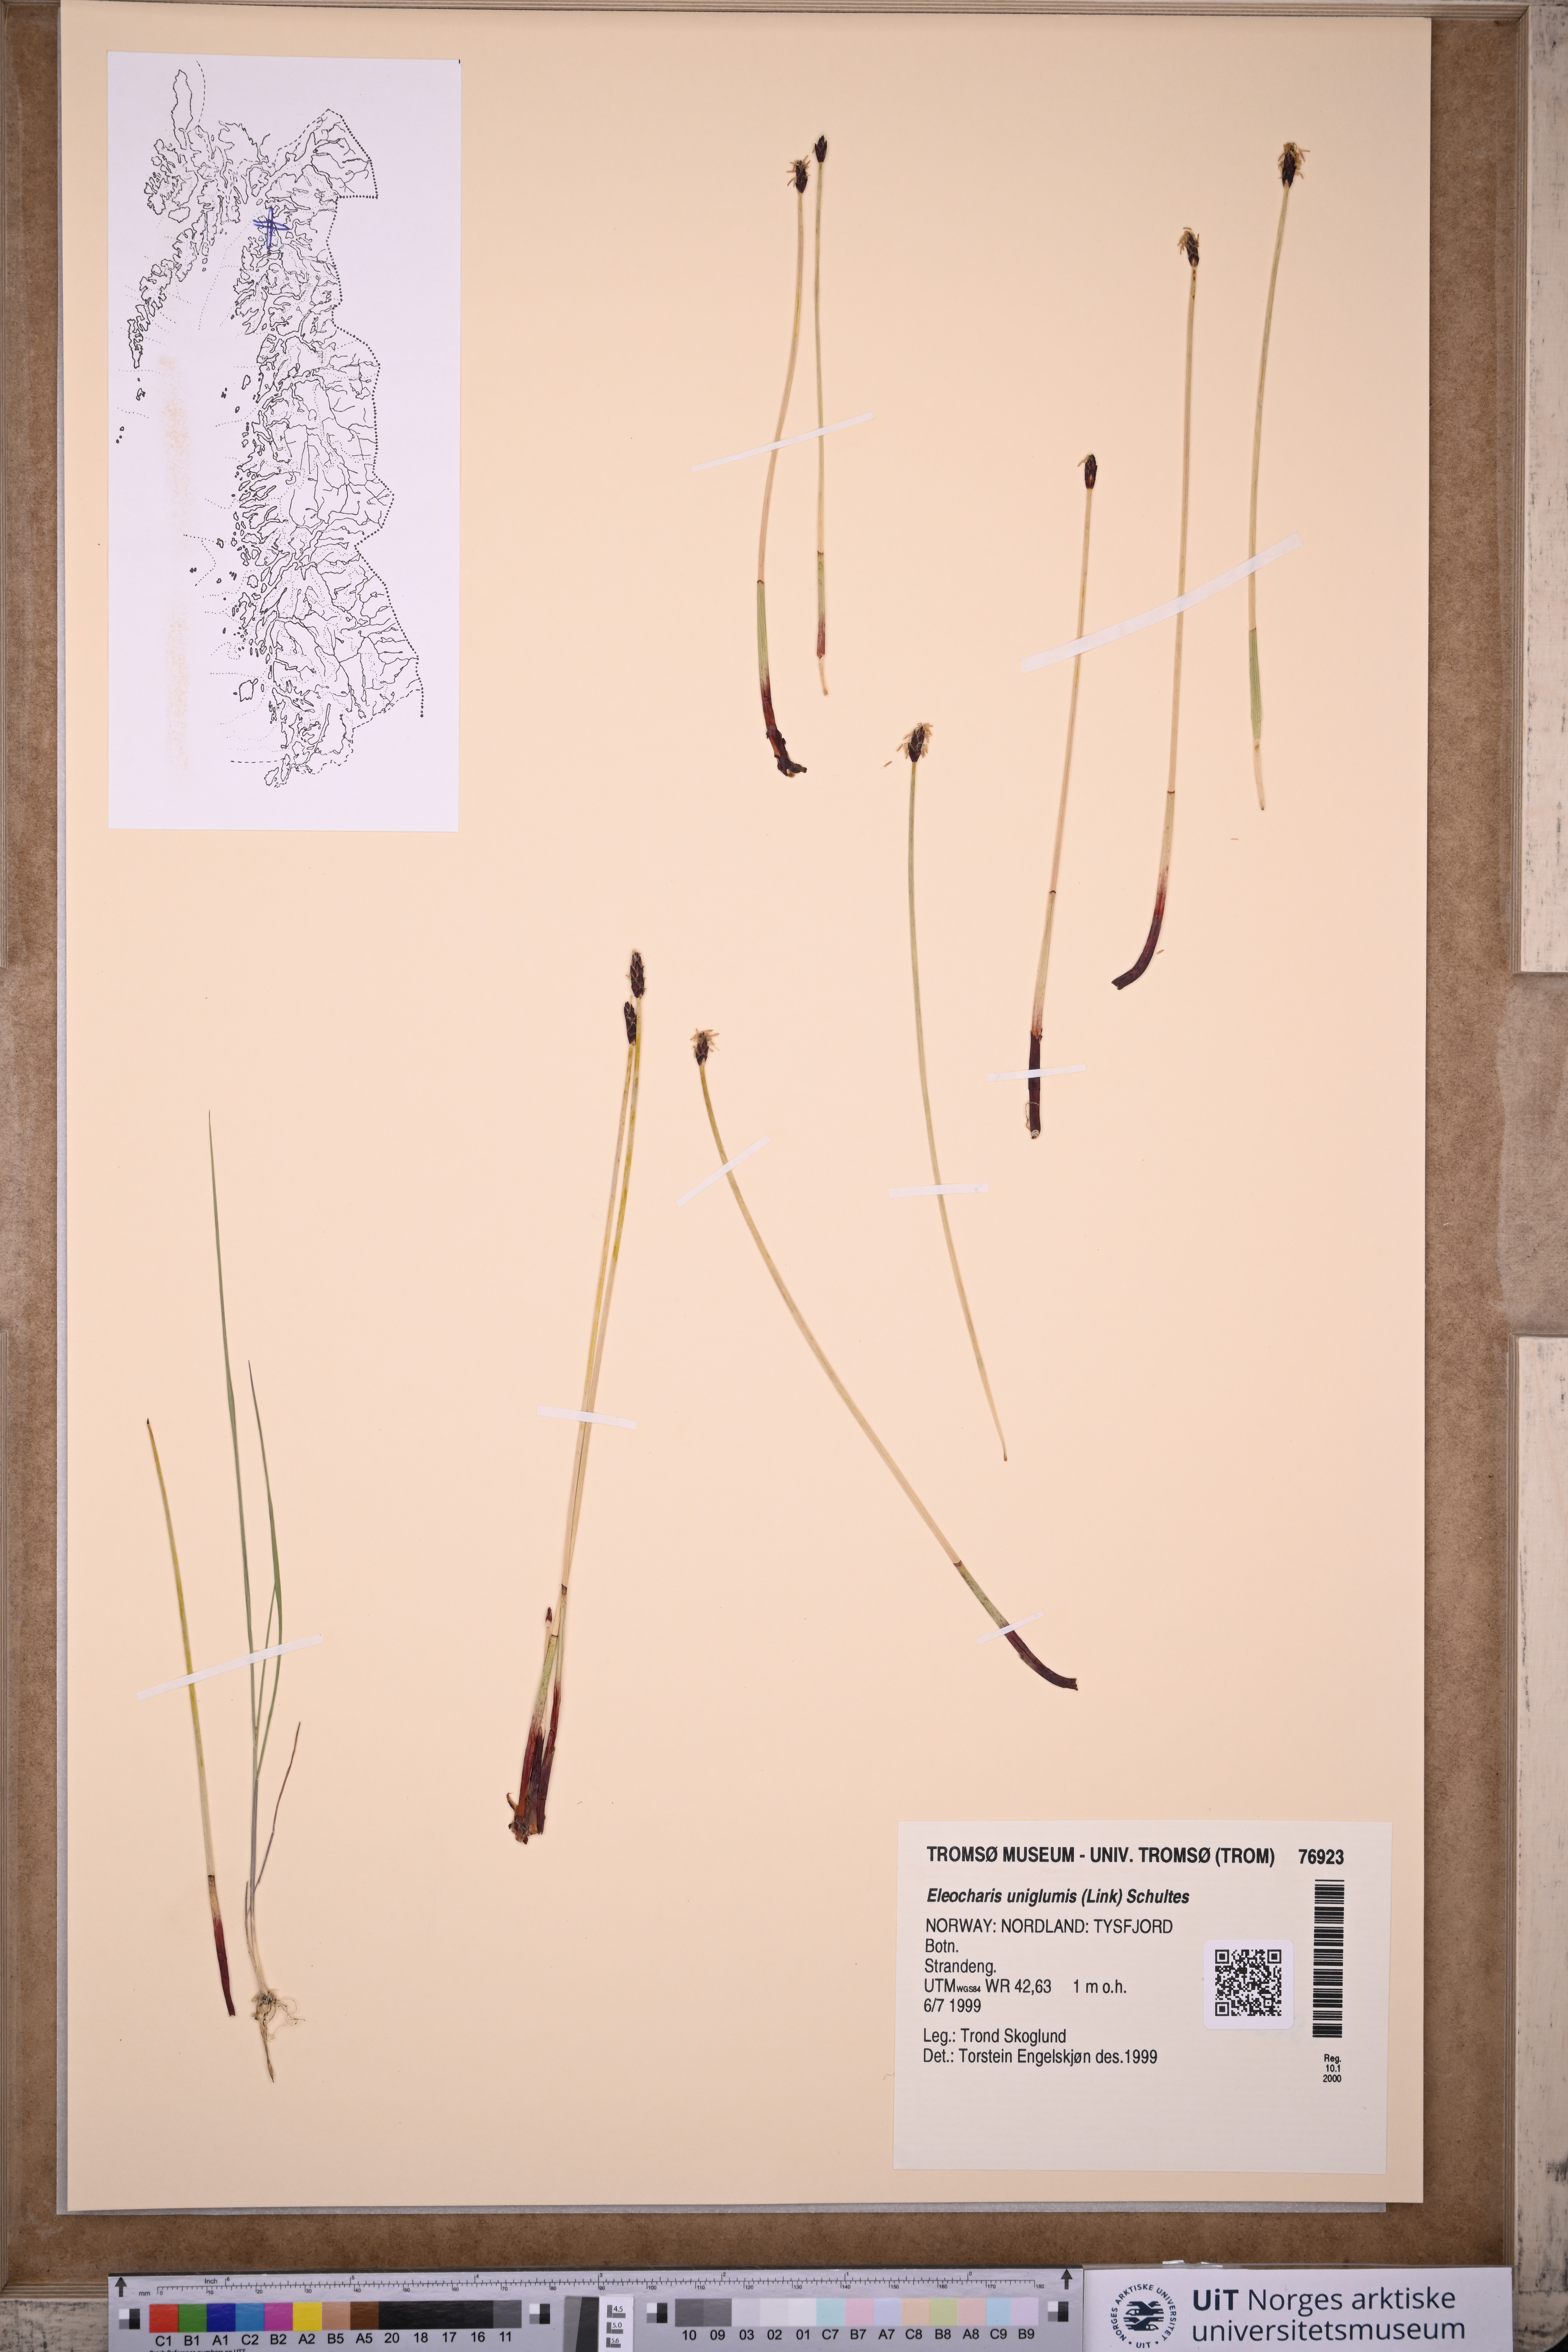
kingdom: Plantae
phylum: Tracheophyta
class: Liliopsida
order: Poales
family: Cyperaceae
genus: Eleocharis
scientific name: Eleocharis uniglumis
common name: Slender spike-rush
